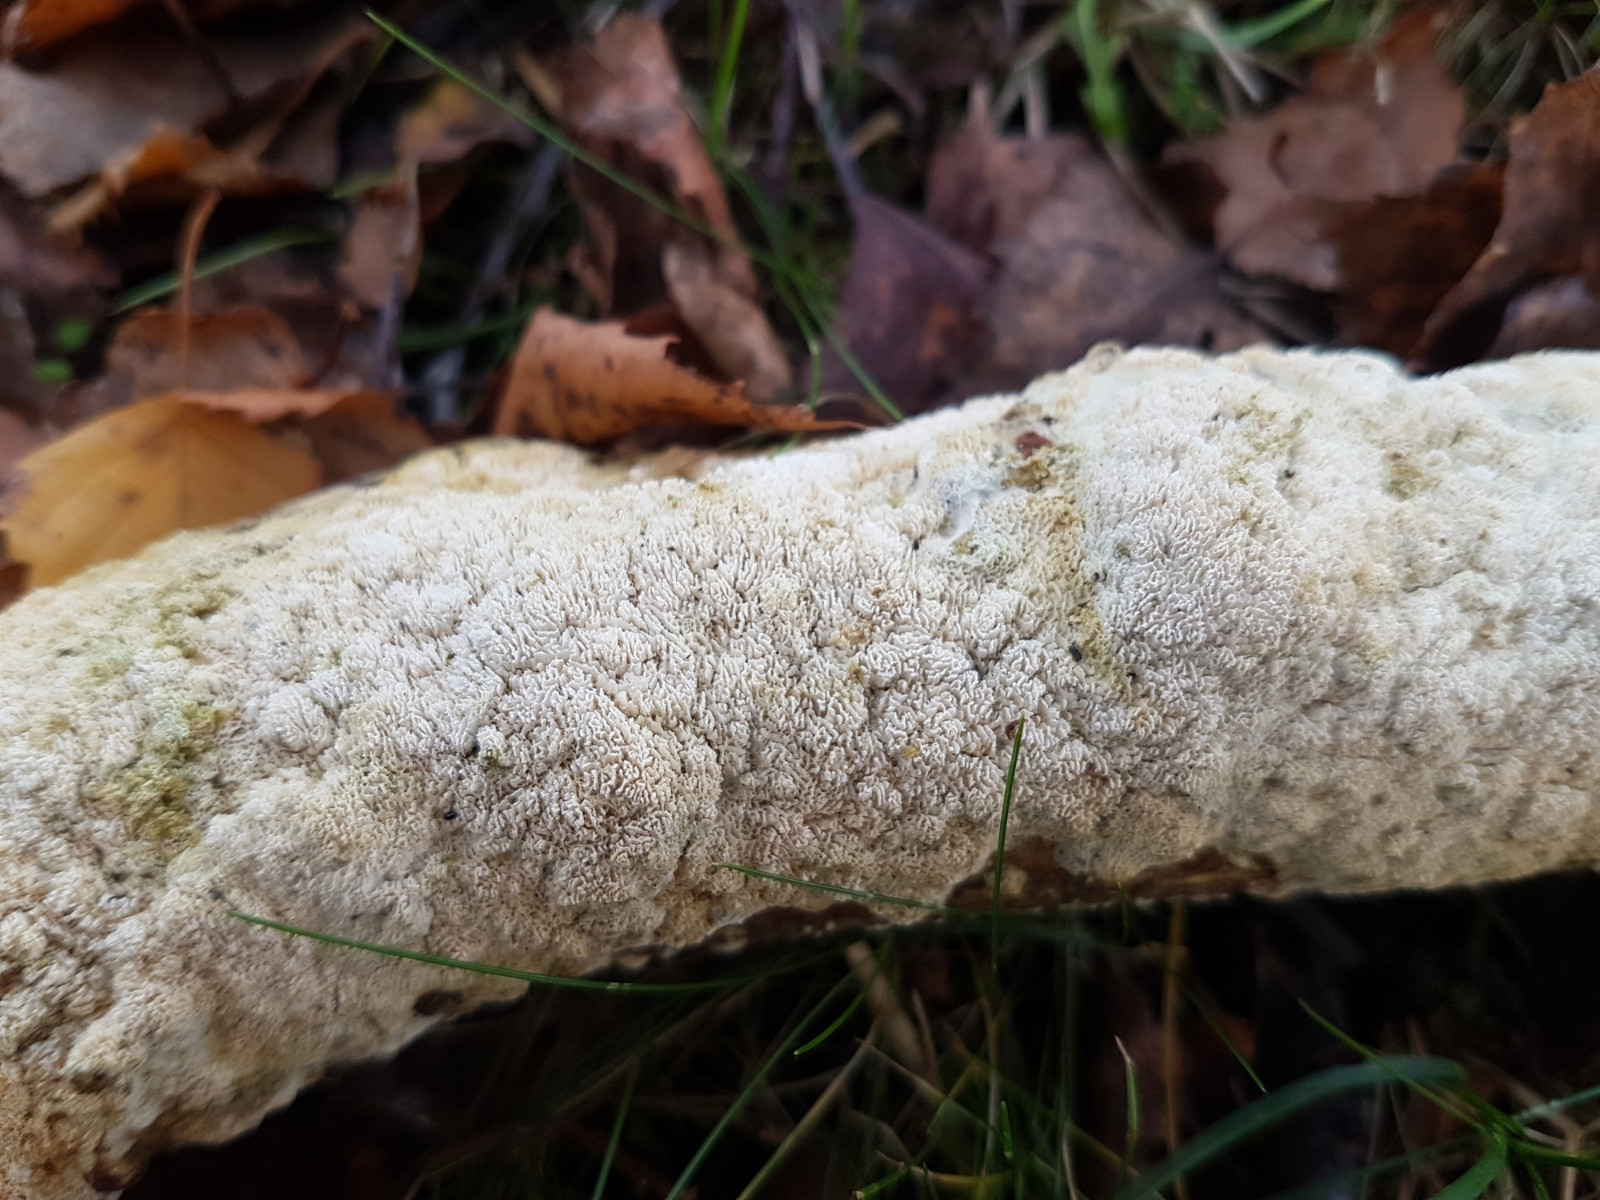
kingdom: Fungi
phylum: Basidiomycota
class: Agaricomycetes
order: Hymenochaetales
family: Schizoporaceae
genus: Schizopora
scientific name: Schizopora paradoxa
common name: hvid tandsvamp
